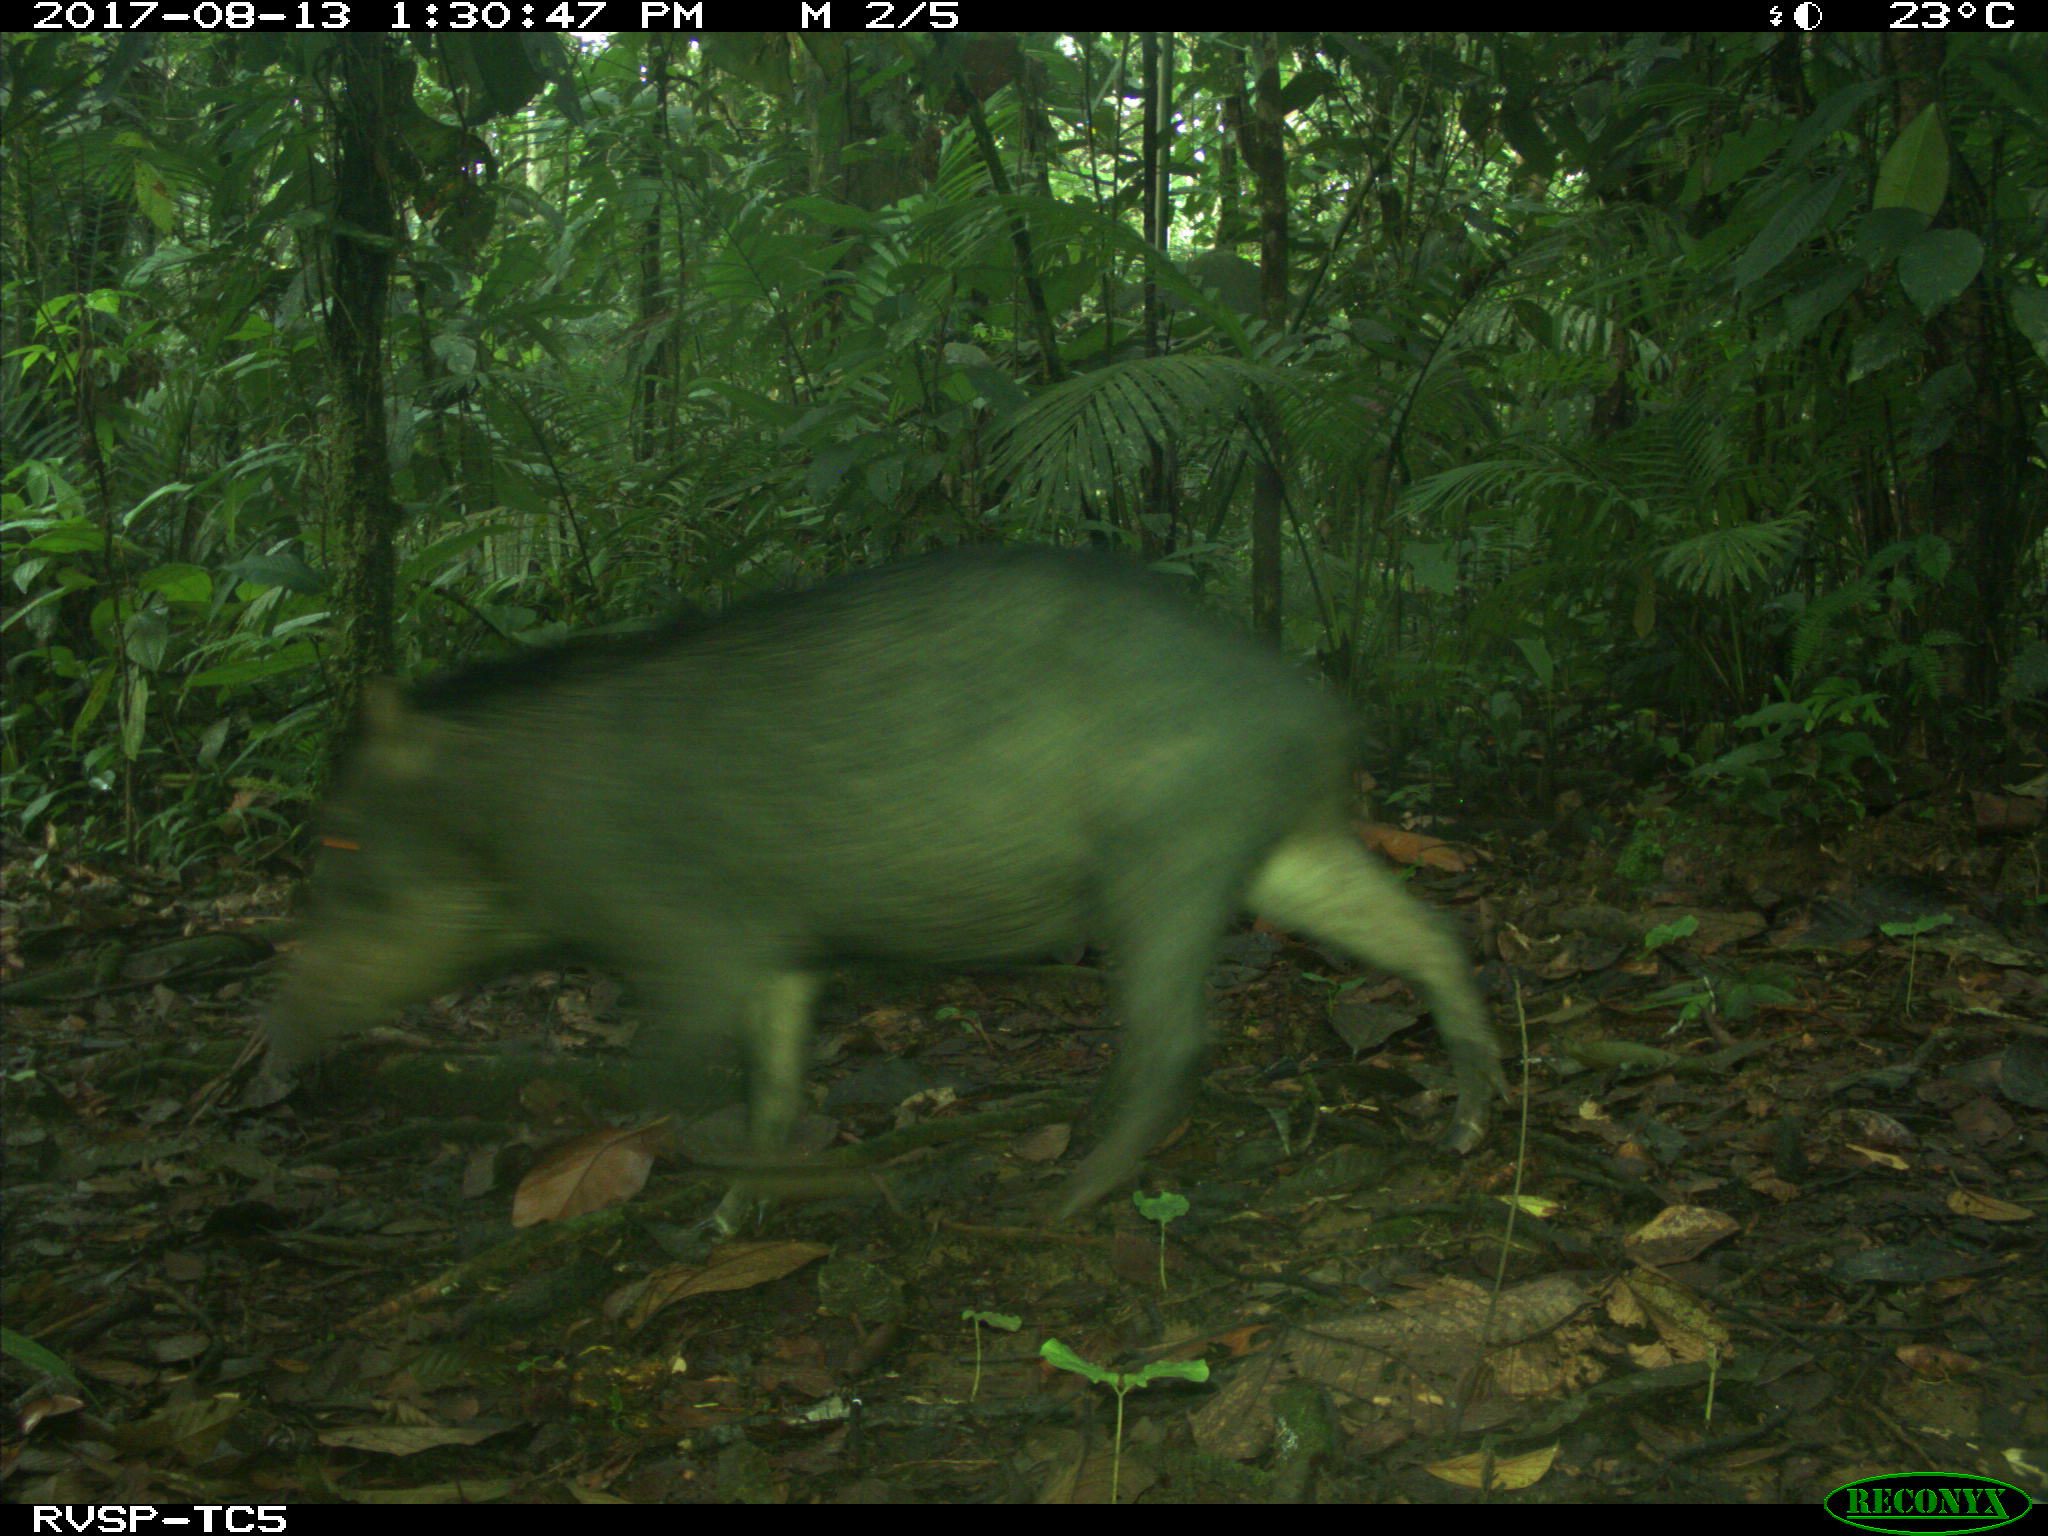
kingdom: Animalia
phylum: Chordata
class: Mammalia
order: Artiodactyla
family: Tayassuidae
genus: Tayassu
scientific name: Tayassu pecari
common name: White-lipped peccary
